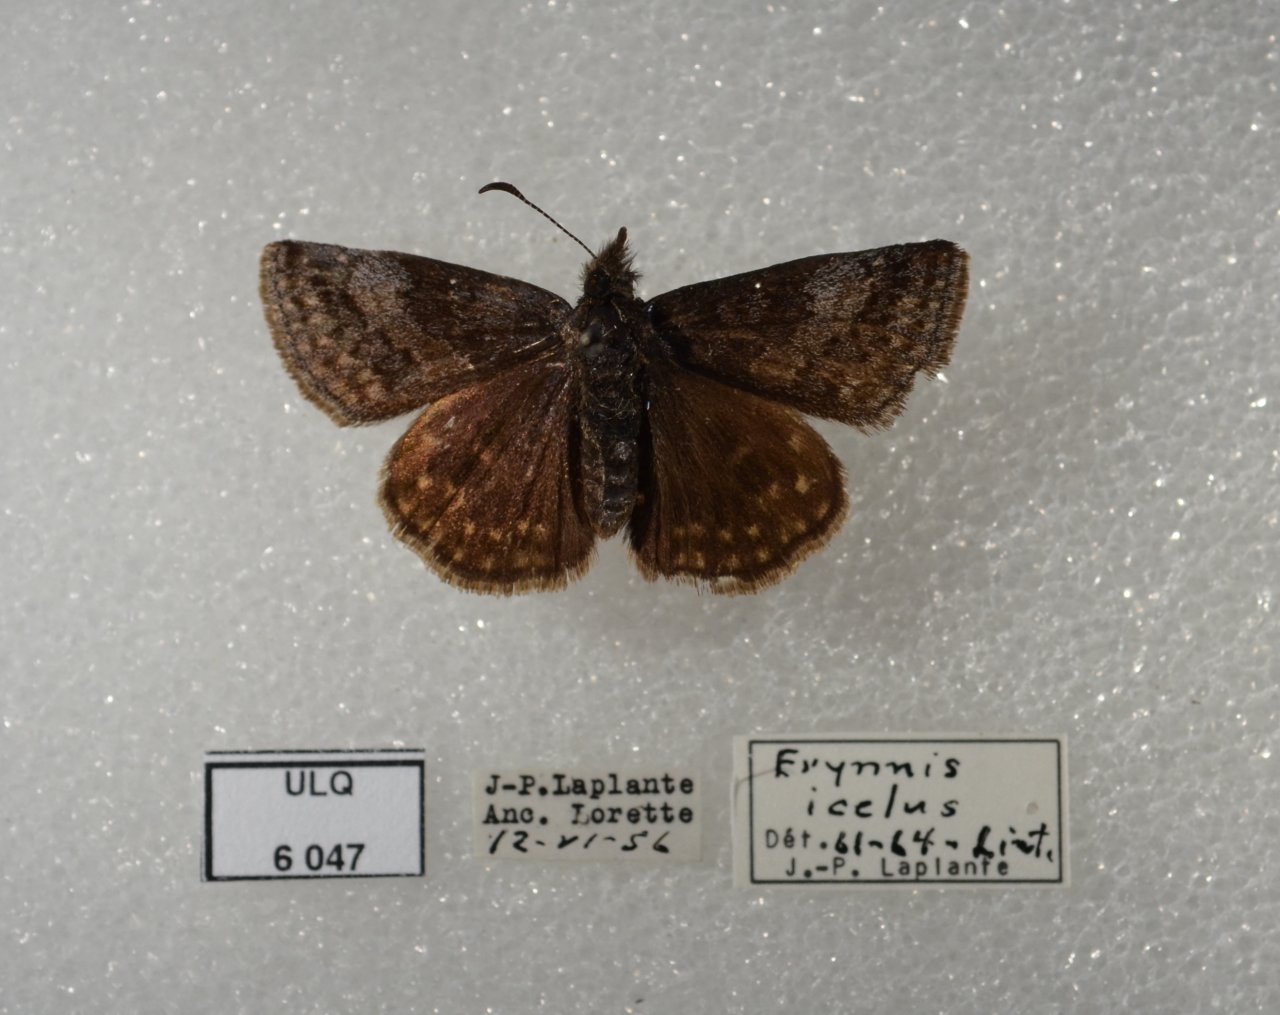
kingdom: Animalia
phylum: Arthropoda
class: Insecta
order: Lepidoptera
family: Hesperiidae
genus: Erynnis
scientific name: Erynnis icelus
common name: Dreamy Duskywing
